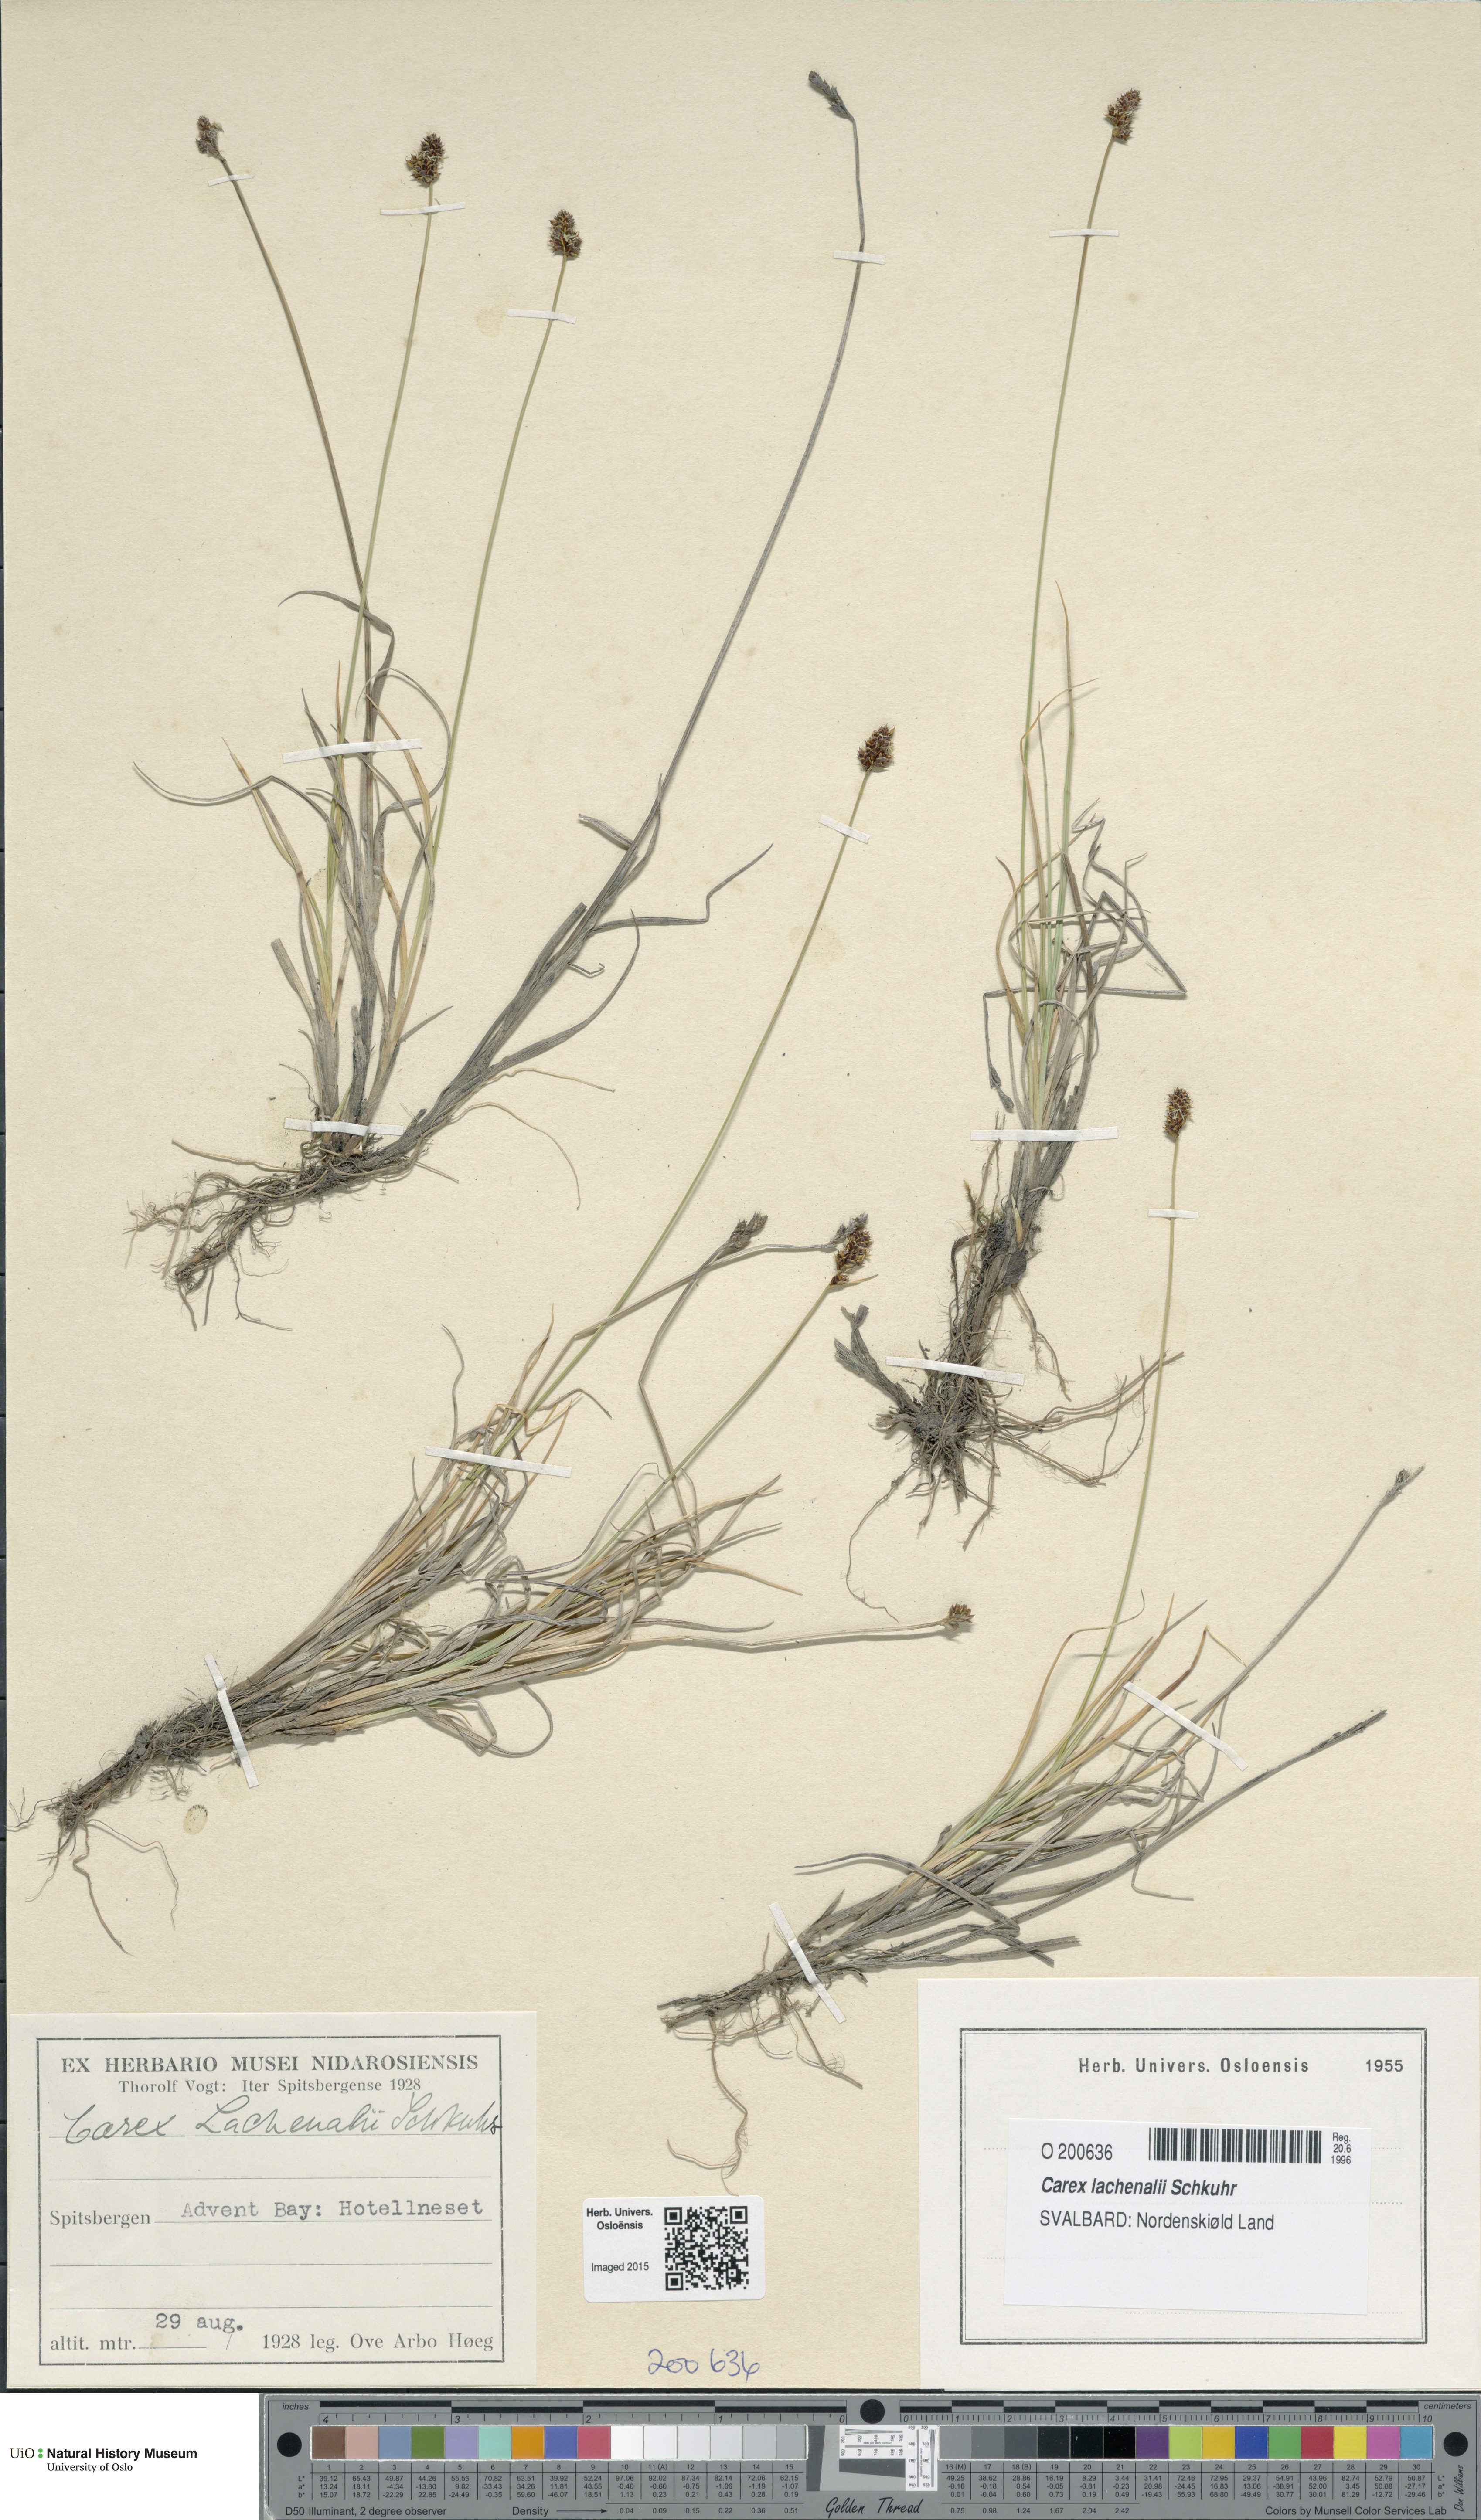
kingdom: Plantae
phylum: Tracheophyta
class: Liliopsida
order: Poales
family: Cyperaceae
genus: Carex
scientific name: Carex lachenalii
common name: Hare's-foot sedge
